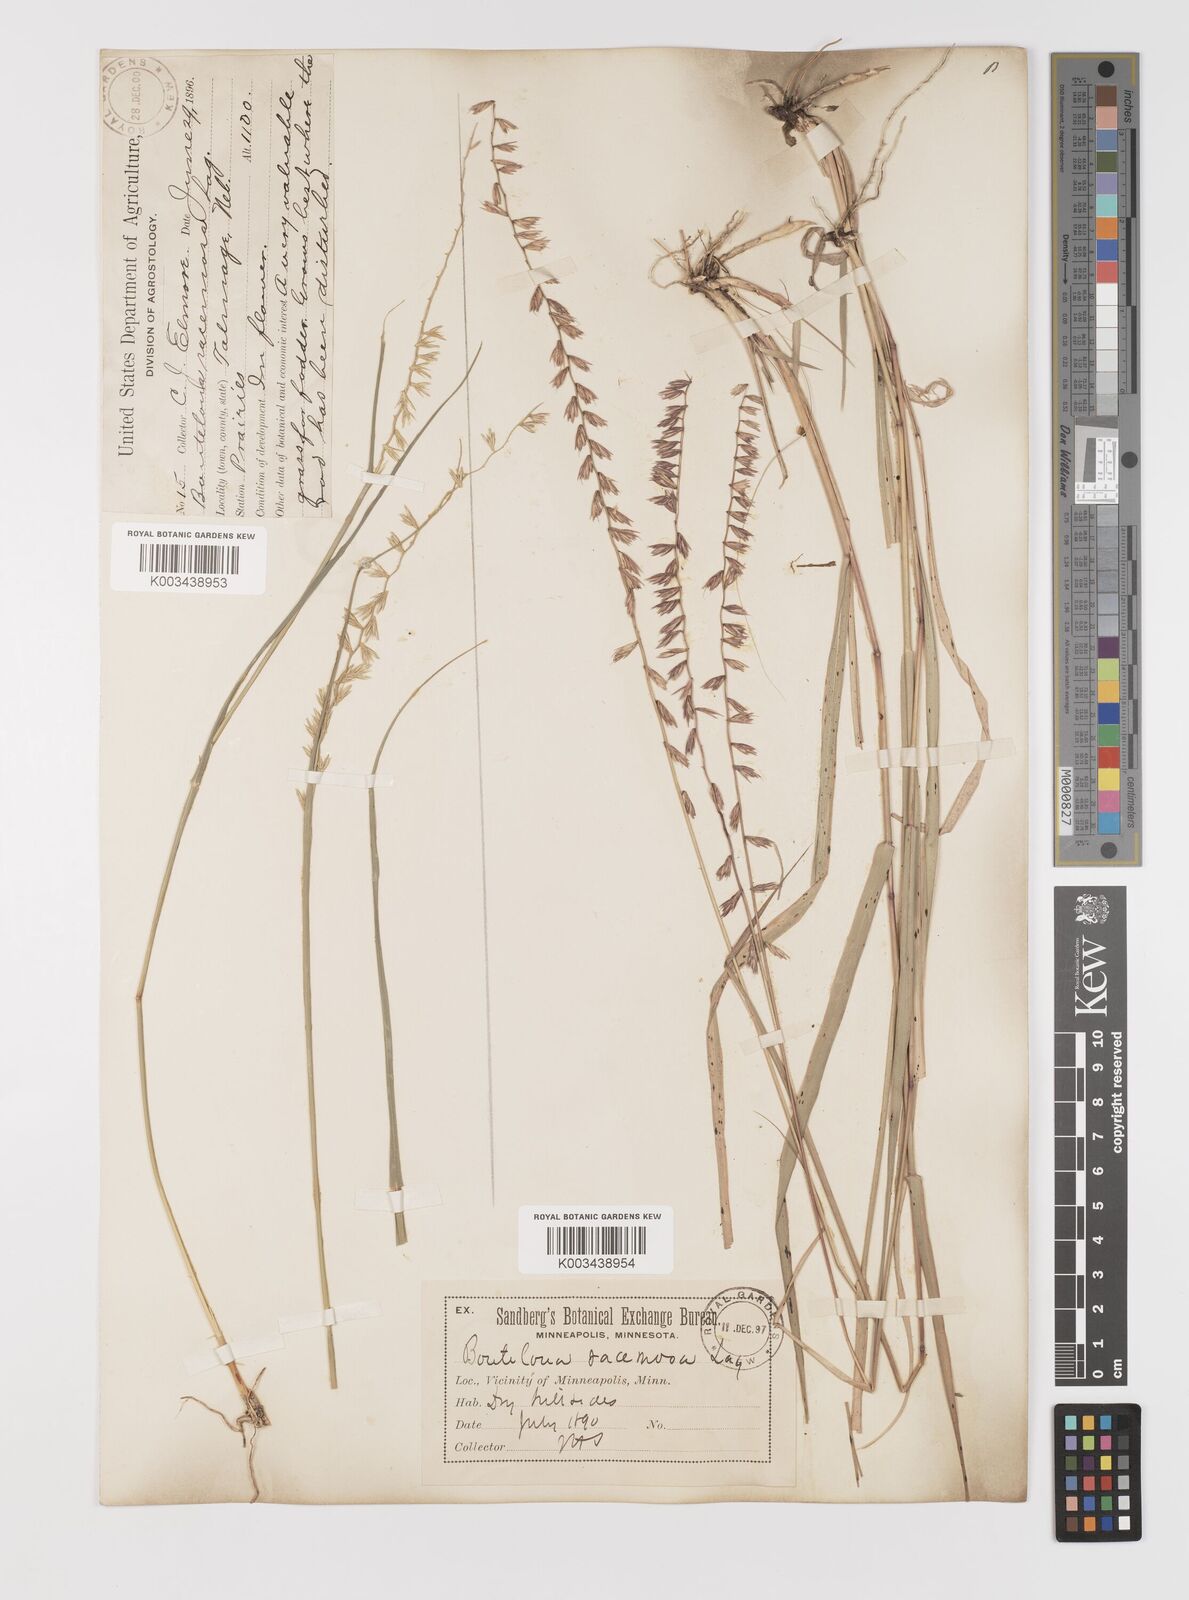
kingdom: Plantae
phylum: Tracheophyta
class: Liliopsida
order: Poales
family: Poaceae
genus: Bouteloua
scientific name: Bouteloua curtipendula
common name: Side-oats grama
